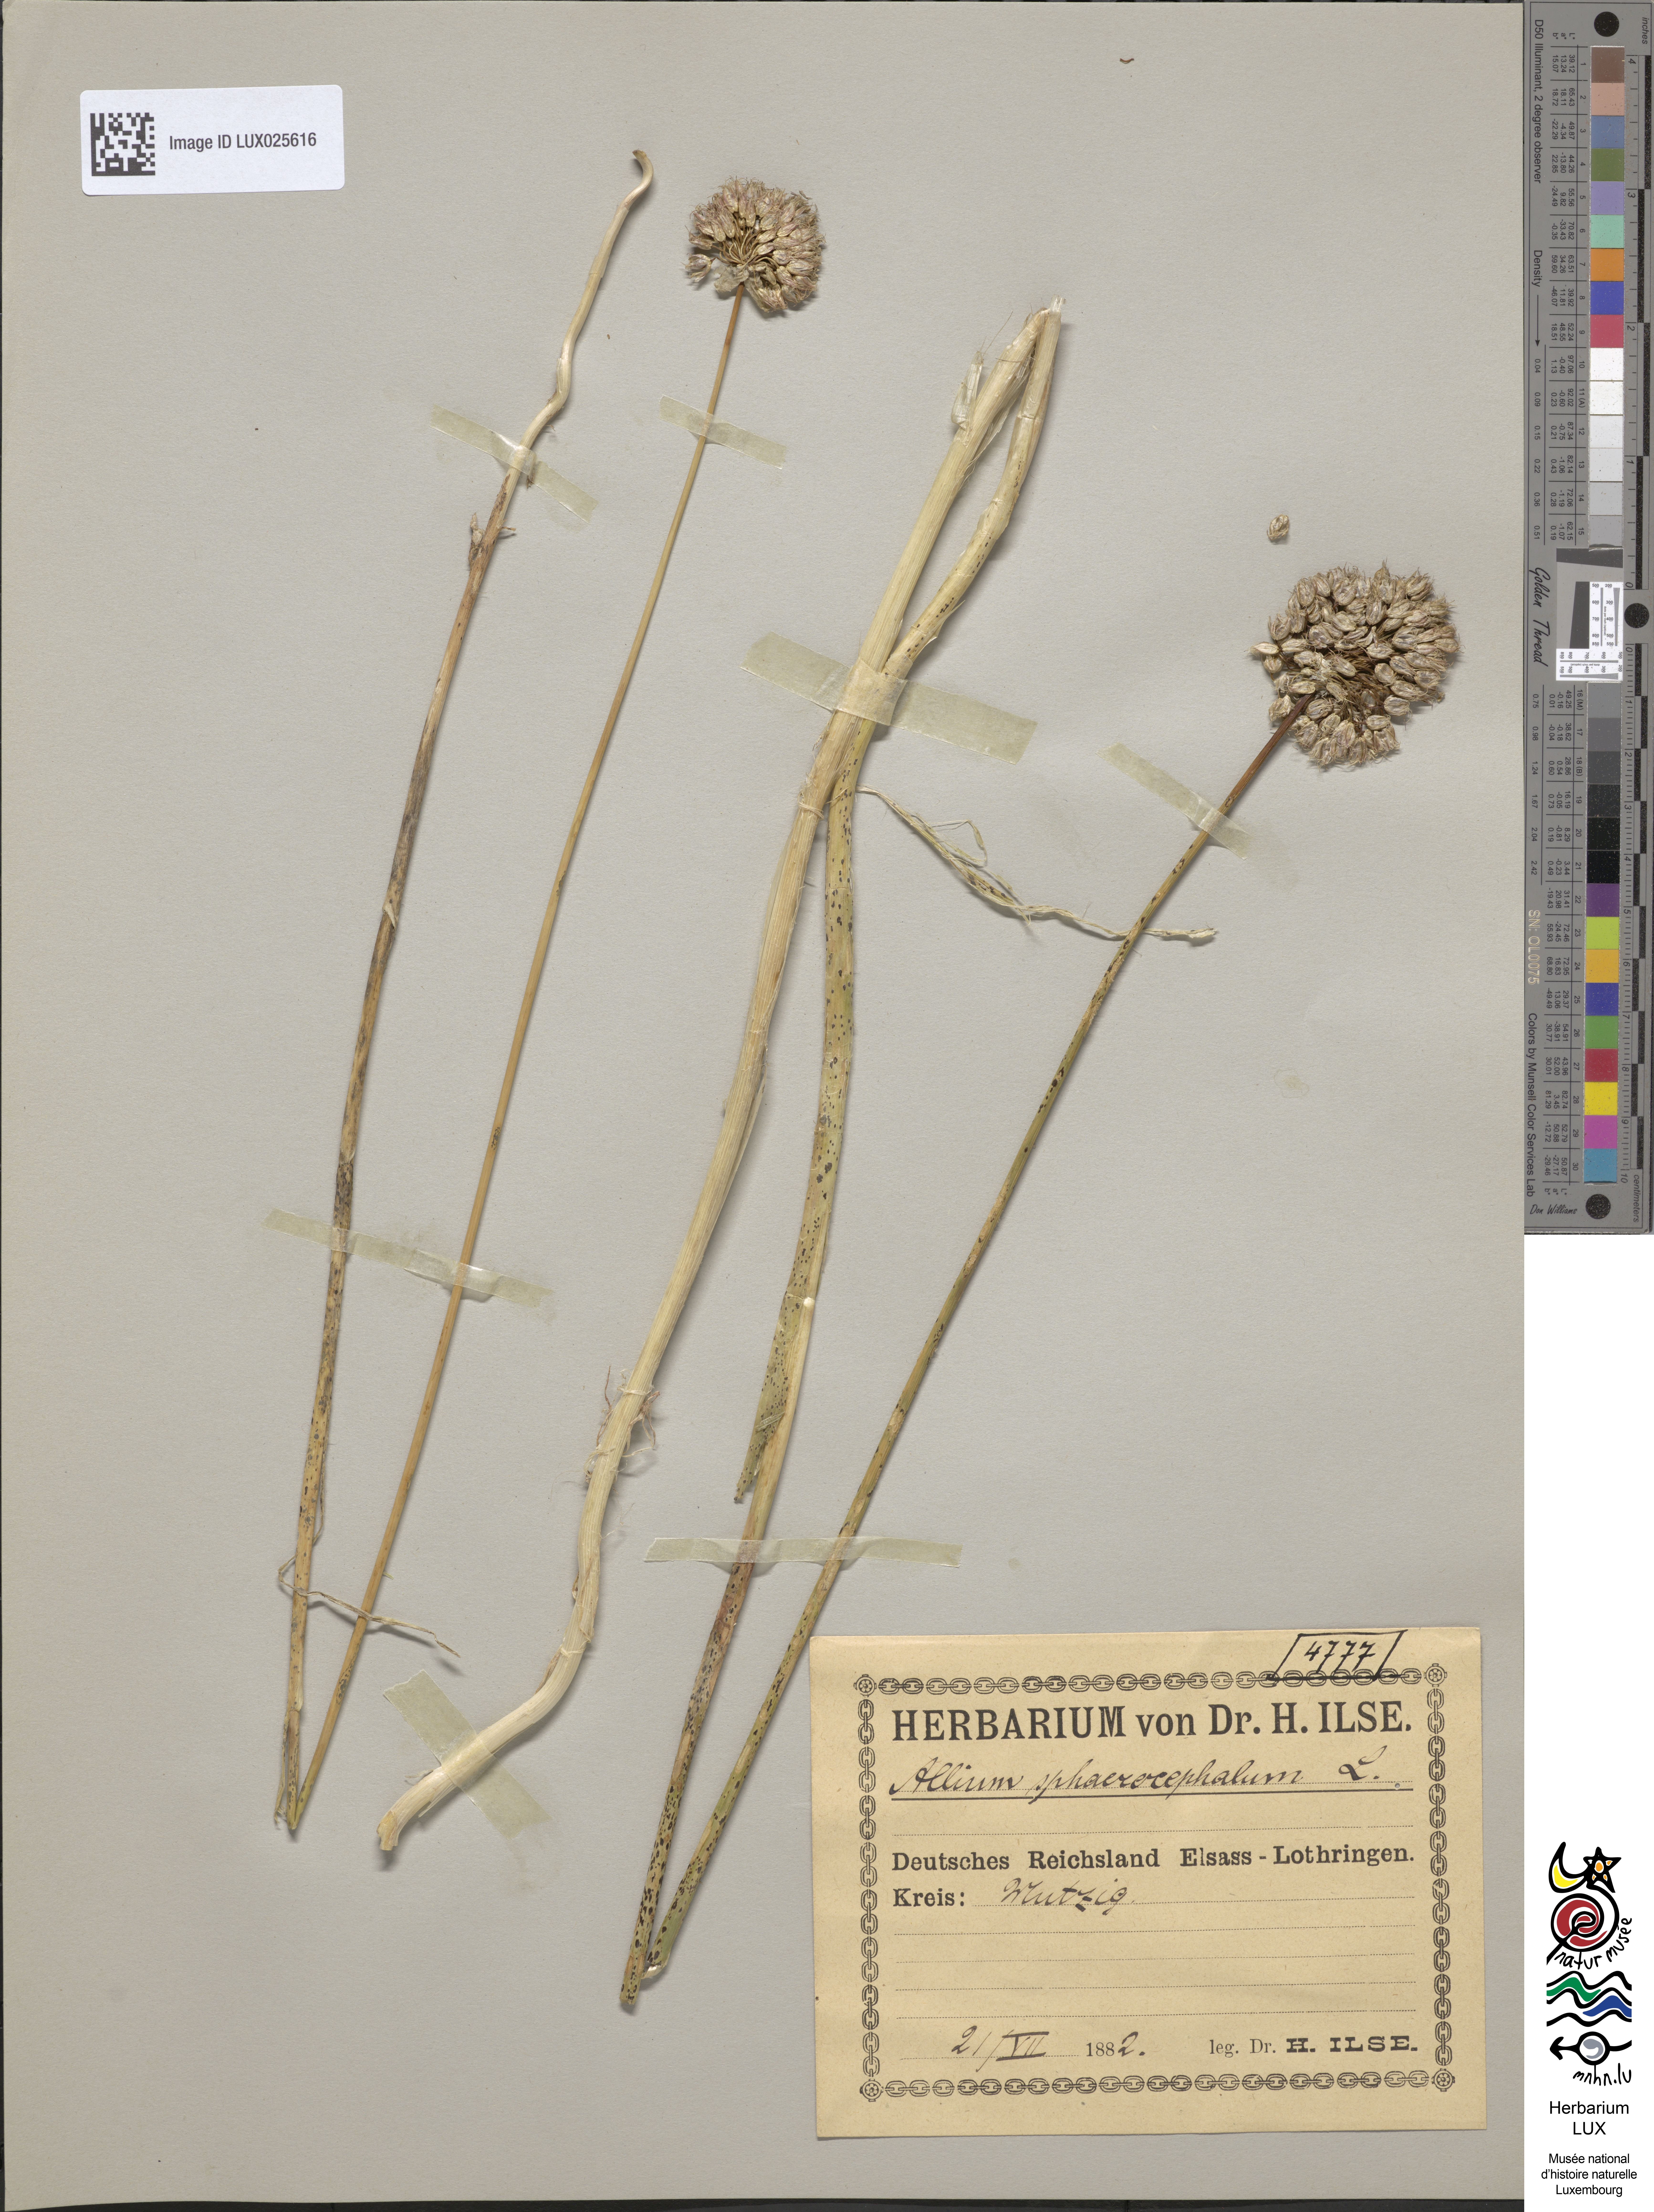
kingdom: Plantae
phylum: Tracheophyta
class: Liliopsida
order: Asparagales
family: Amaryllidaceae
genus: Allium
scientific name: Allium sphaerocephalon
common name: Round-headed leek
